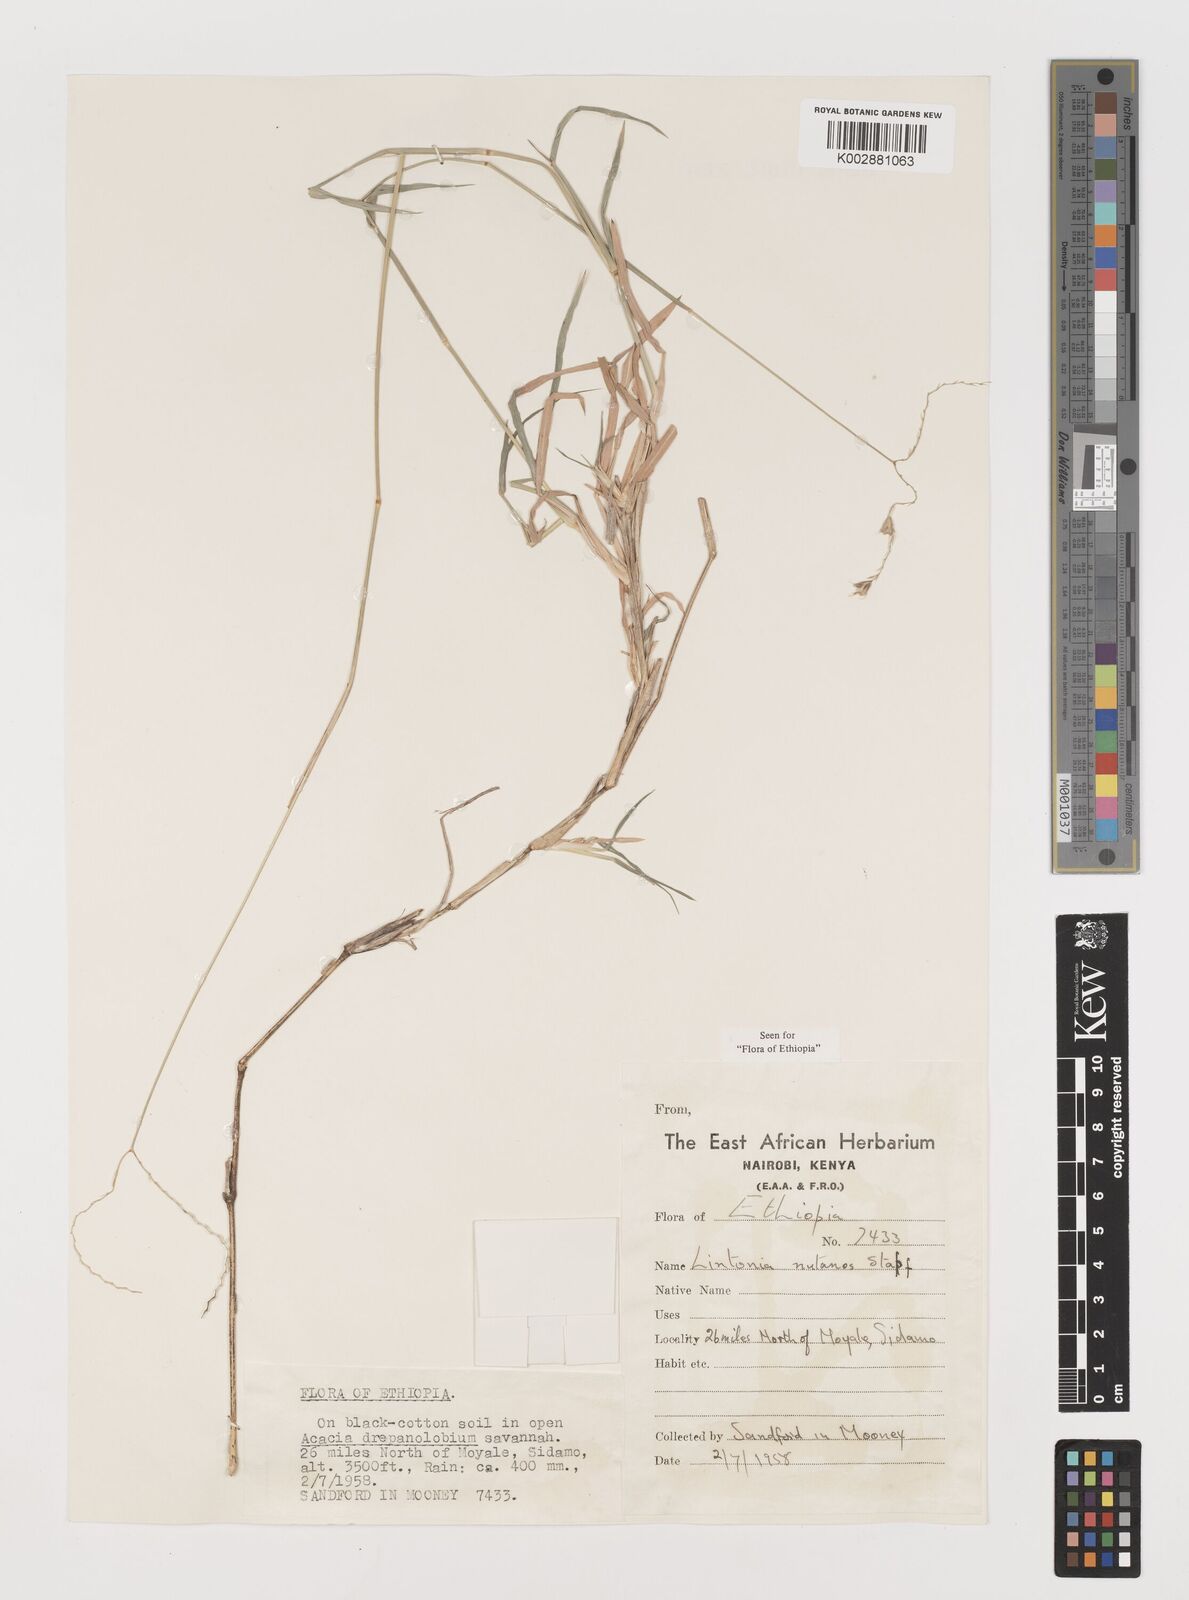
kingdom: Plantae
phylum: Tracheophyta
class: Liliopsida
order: Poales
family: Poaceae
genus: Chloris
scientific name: Chloris nutans
